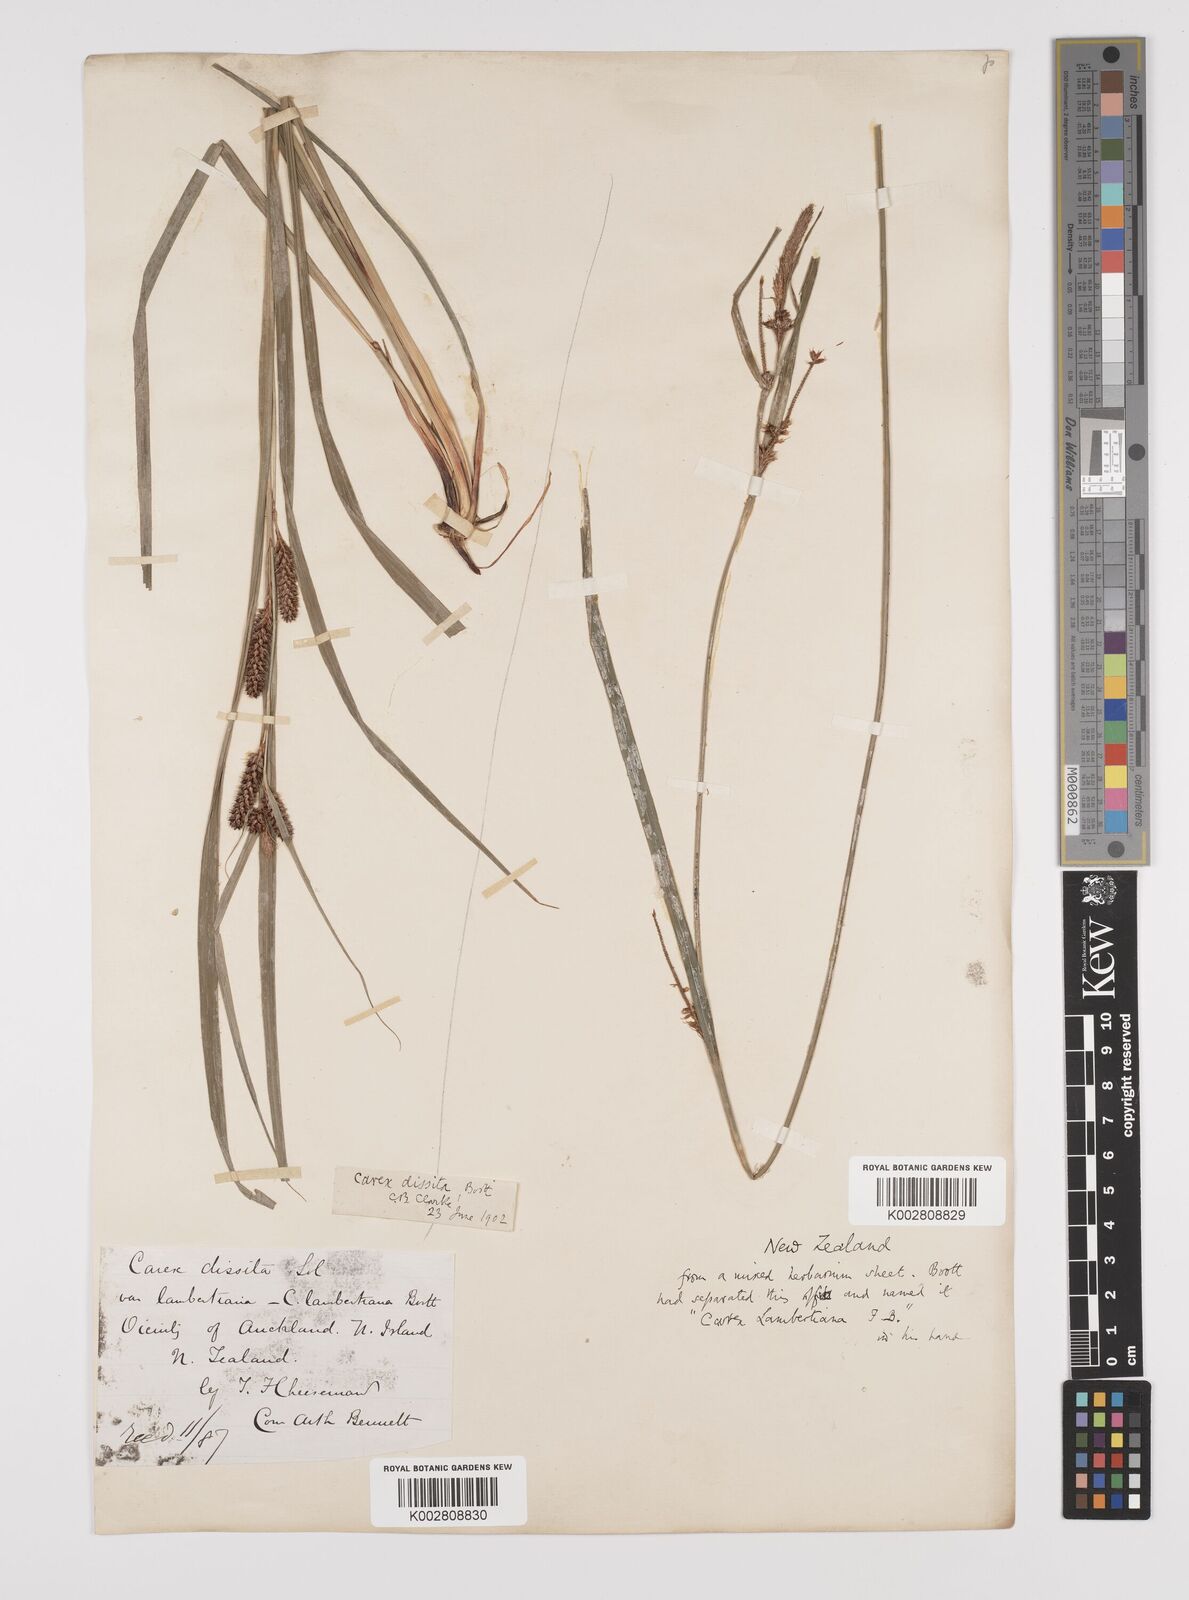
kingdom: Plantae
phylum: Tracheophyta
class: Liliopsida
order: Poales
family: Cyperaceae
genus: Carex
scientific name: Carex dissita
